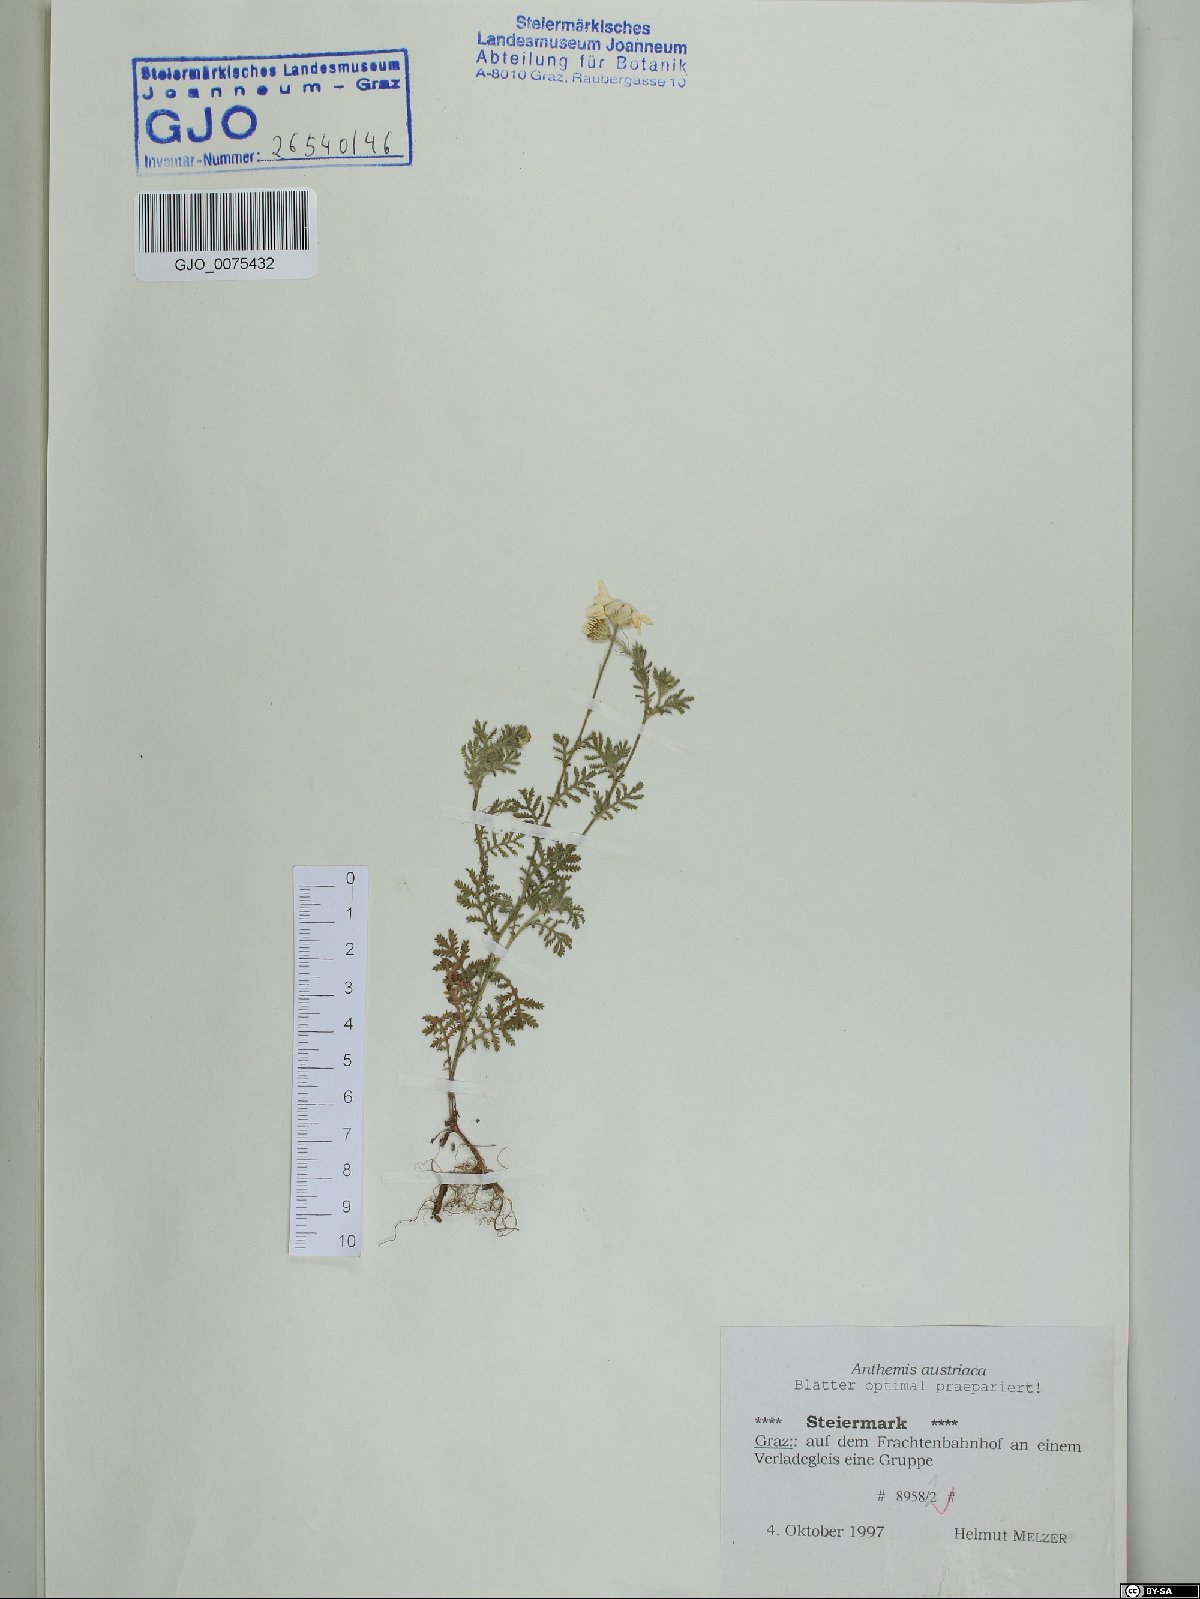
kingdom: Plantae
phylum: Tracheophyta
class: Magnoliopsida
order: Asterales
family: Asteraceae
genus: Cota
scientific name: Cota austriaca
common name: Austrian chamomile
